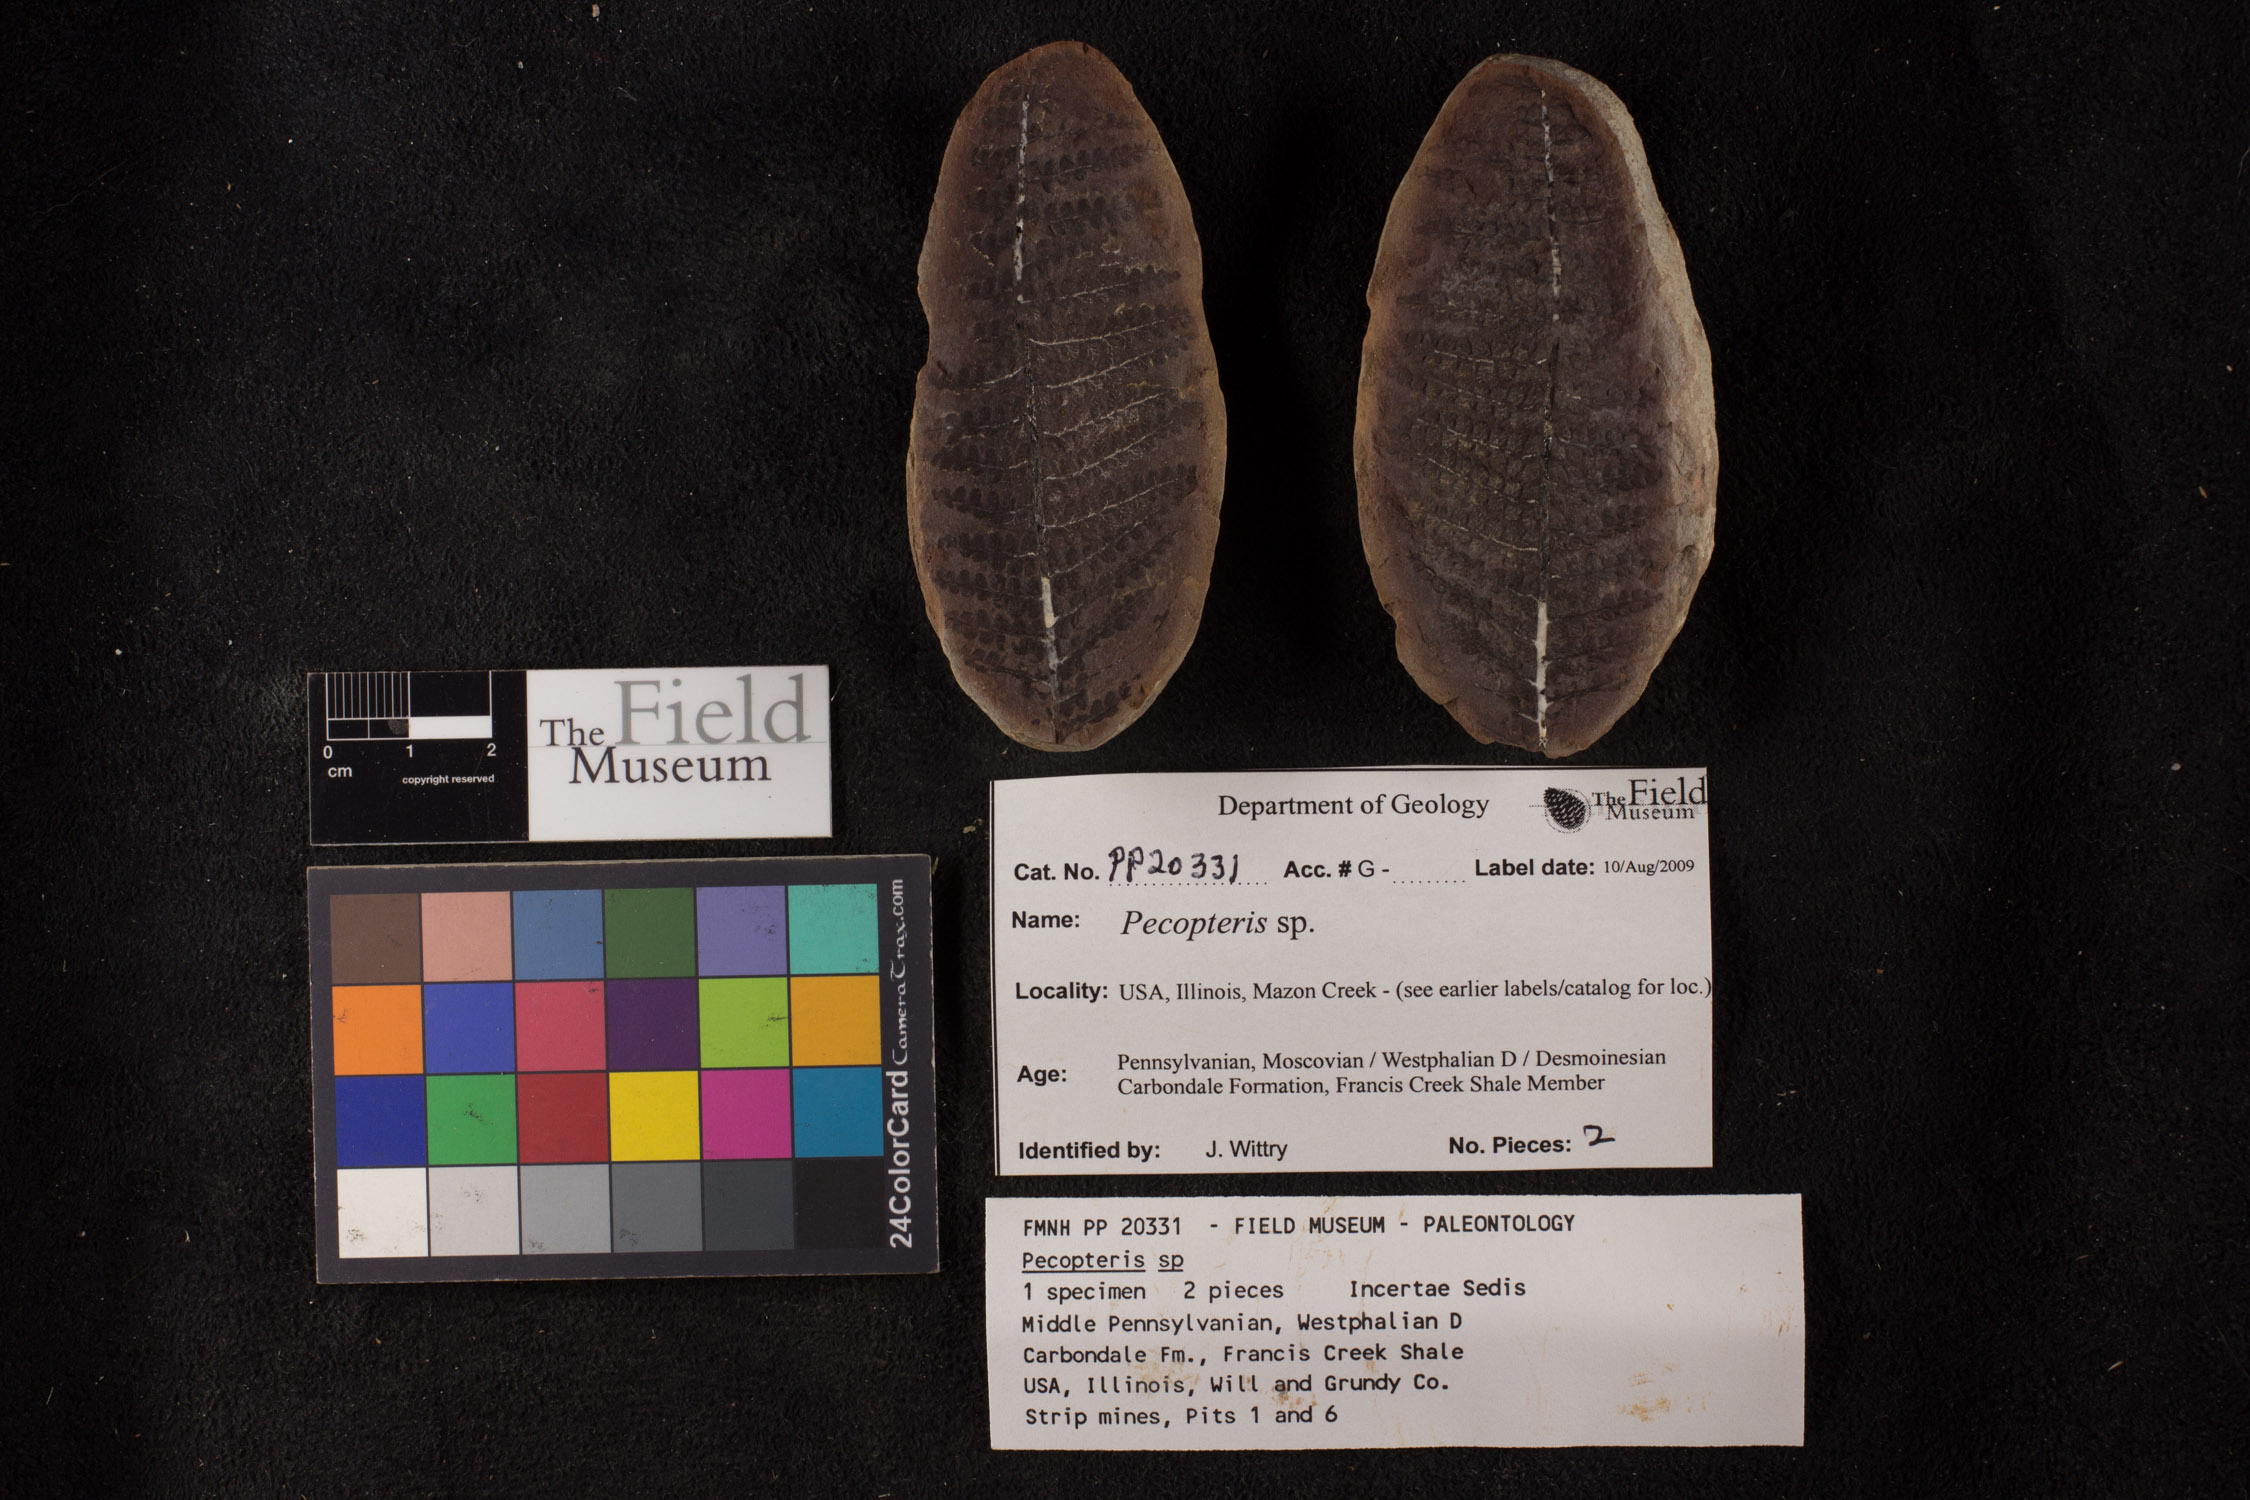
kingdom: Plantae
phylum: Tracheophyta
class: Polypodiopsida
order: Marattiales
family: Asterothecaceae
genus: Pecopteris
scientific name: Pecopteris
